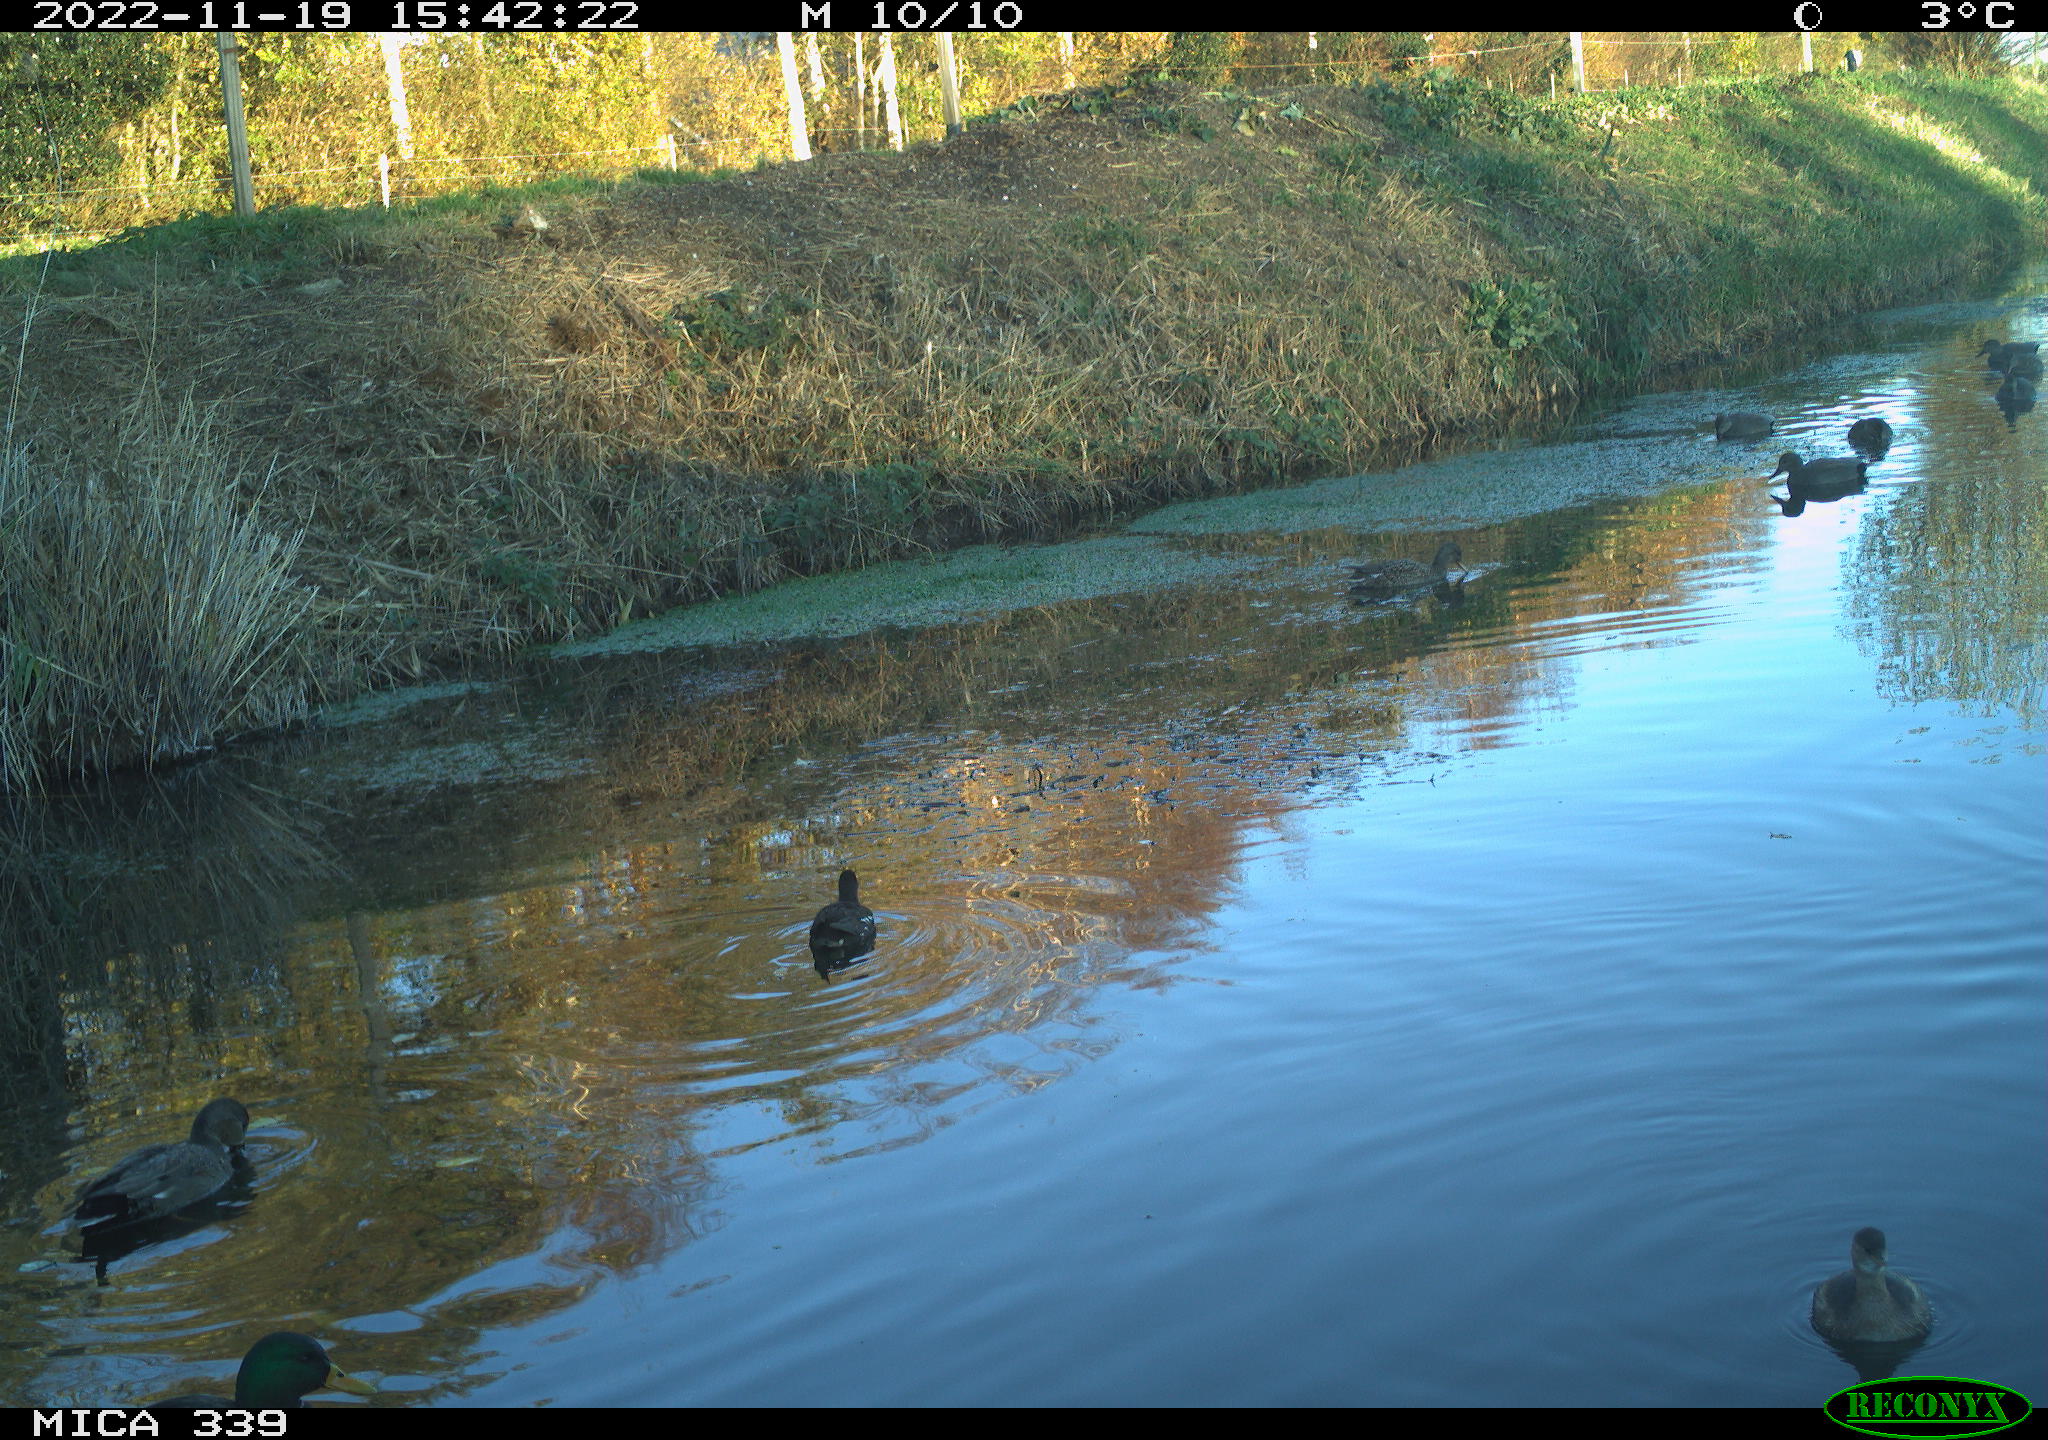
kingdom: Animalia
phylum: Chordata
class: Aves
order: Gruiformes
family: Rallidae
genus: Gallinula
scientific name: Gallinula chloropus
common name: Common moorhen
